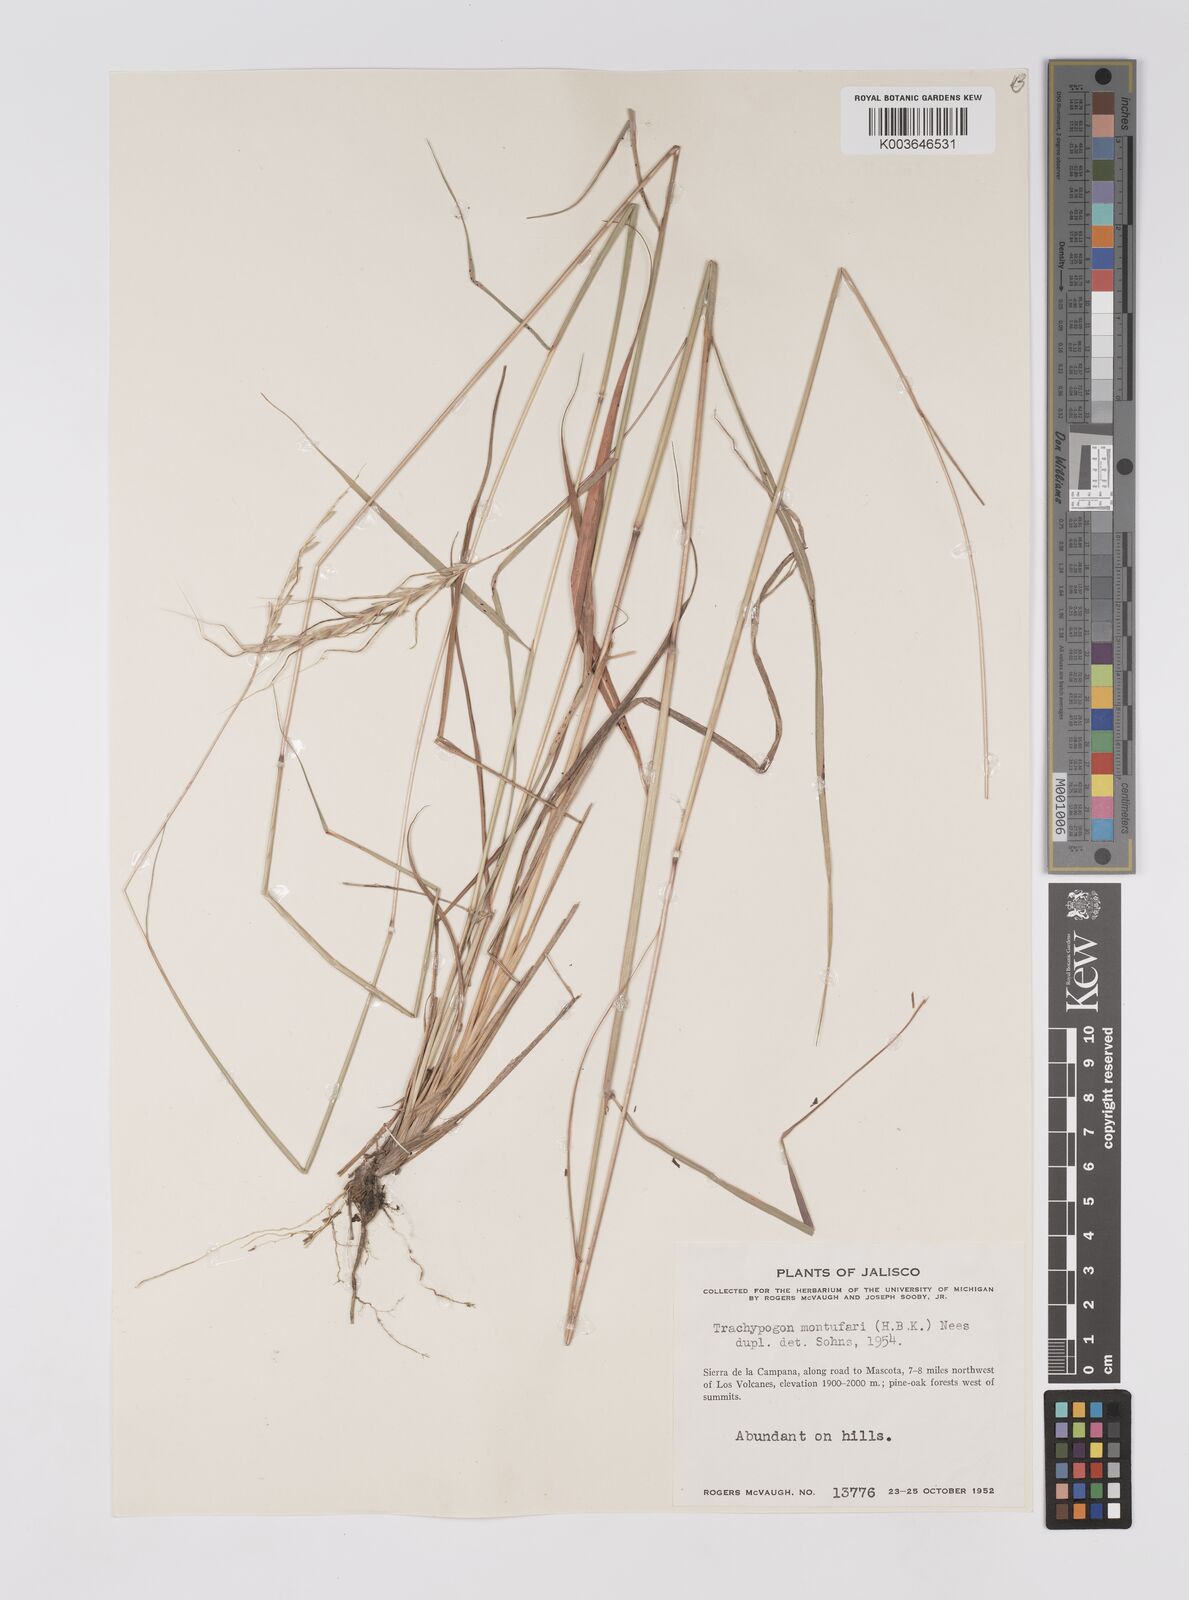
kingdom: Plantae
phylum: Tracheophyta
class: Liliopsida
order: Poales
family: Poaceae
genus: Trachypogon
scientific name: Trachypogon spicatus
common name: Crinkle-awn
